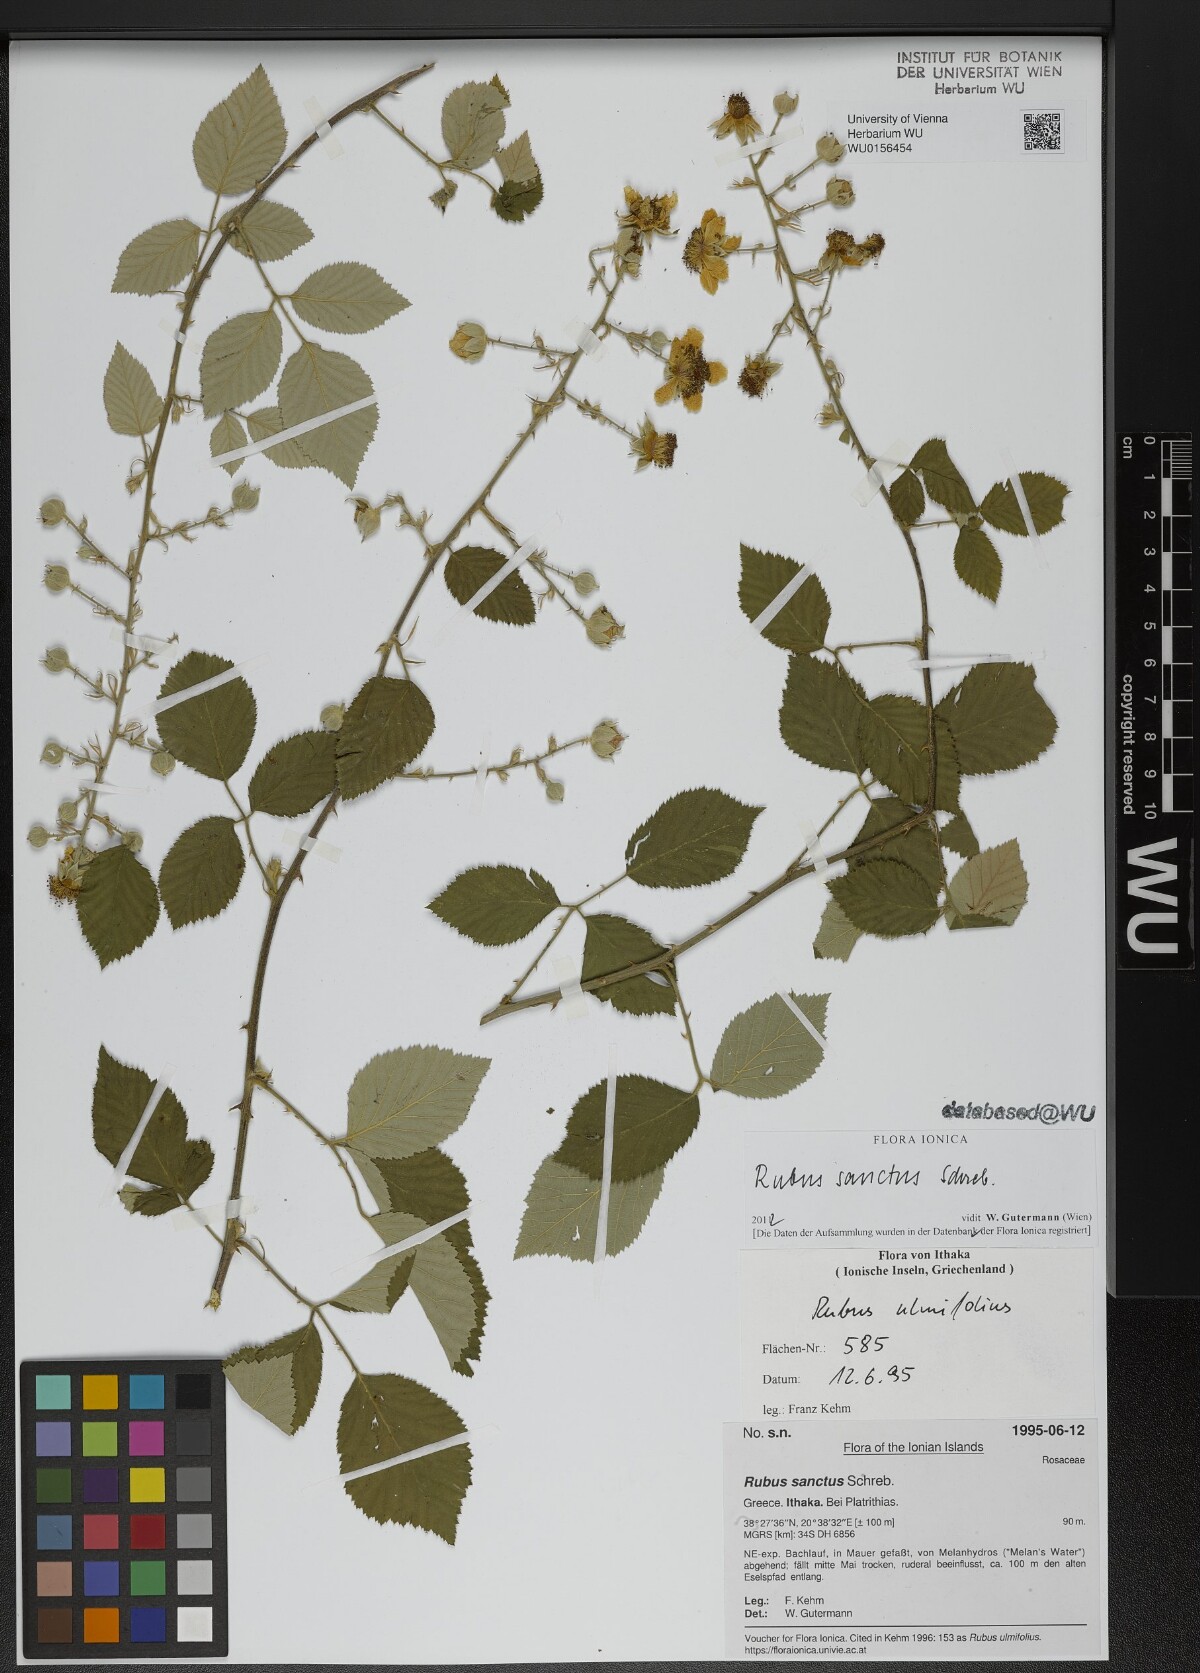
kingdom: Plantae
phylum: Tracheophyta
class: Magnoliopsida
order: Rosales
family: Rosaceae
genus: Rubus
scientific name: Rubus sanctus
